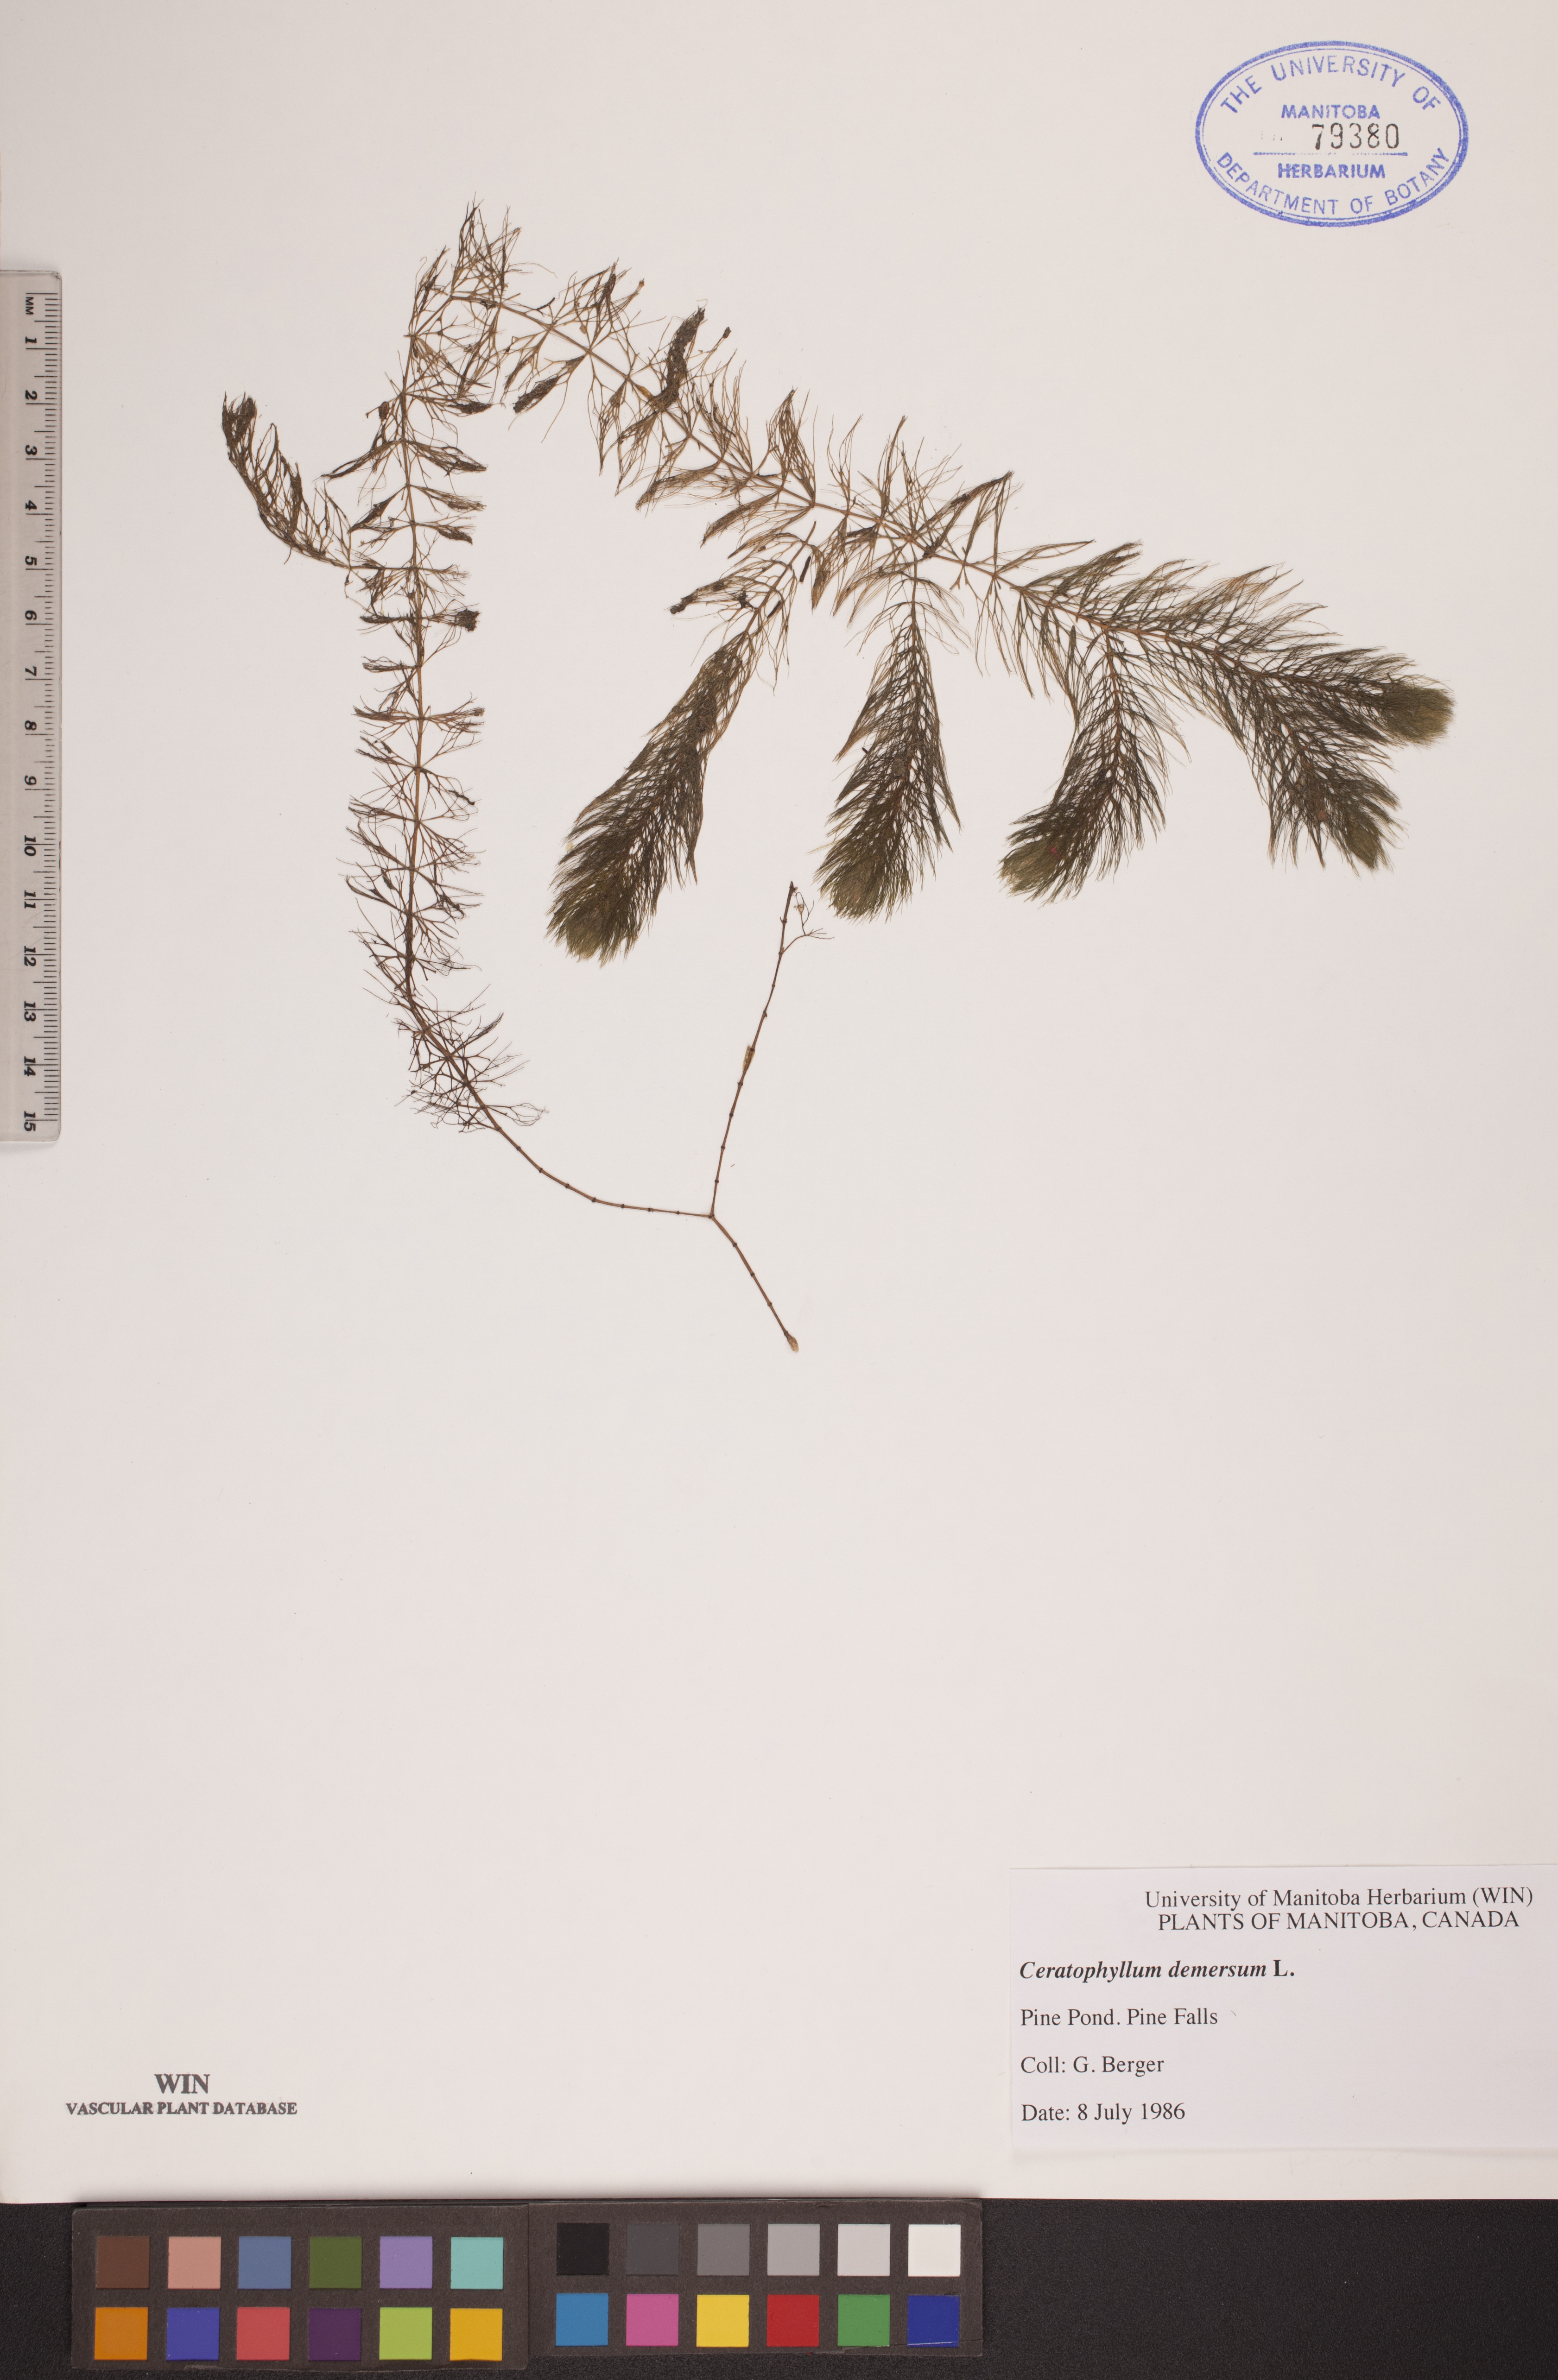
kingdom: Plantae
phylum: Tracheophyta
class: Magnoliopsida
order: Ceratophyllales
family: Ceratophyllaceae
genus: Ceratophyllum
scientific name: Ceratophyllum demersum
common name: Rigid hornwort
